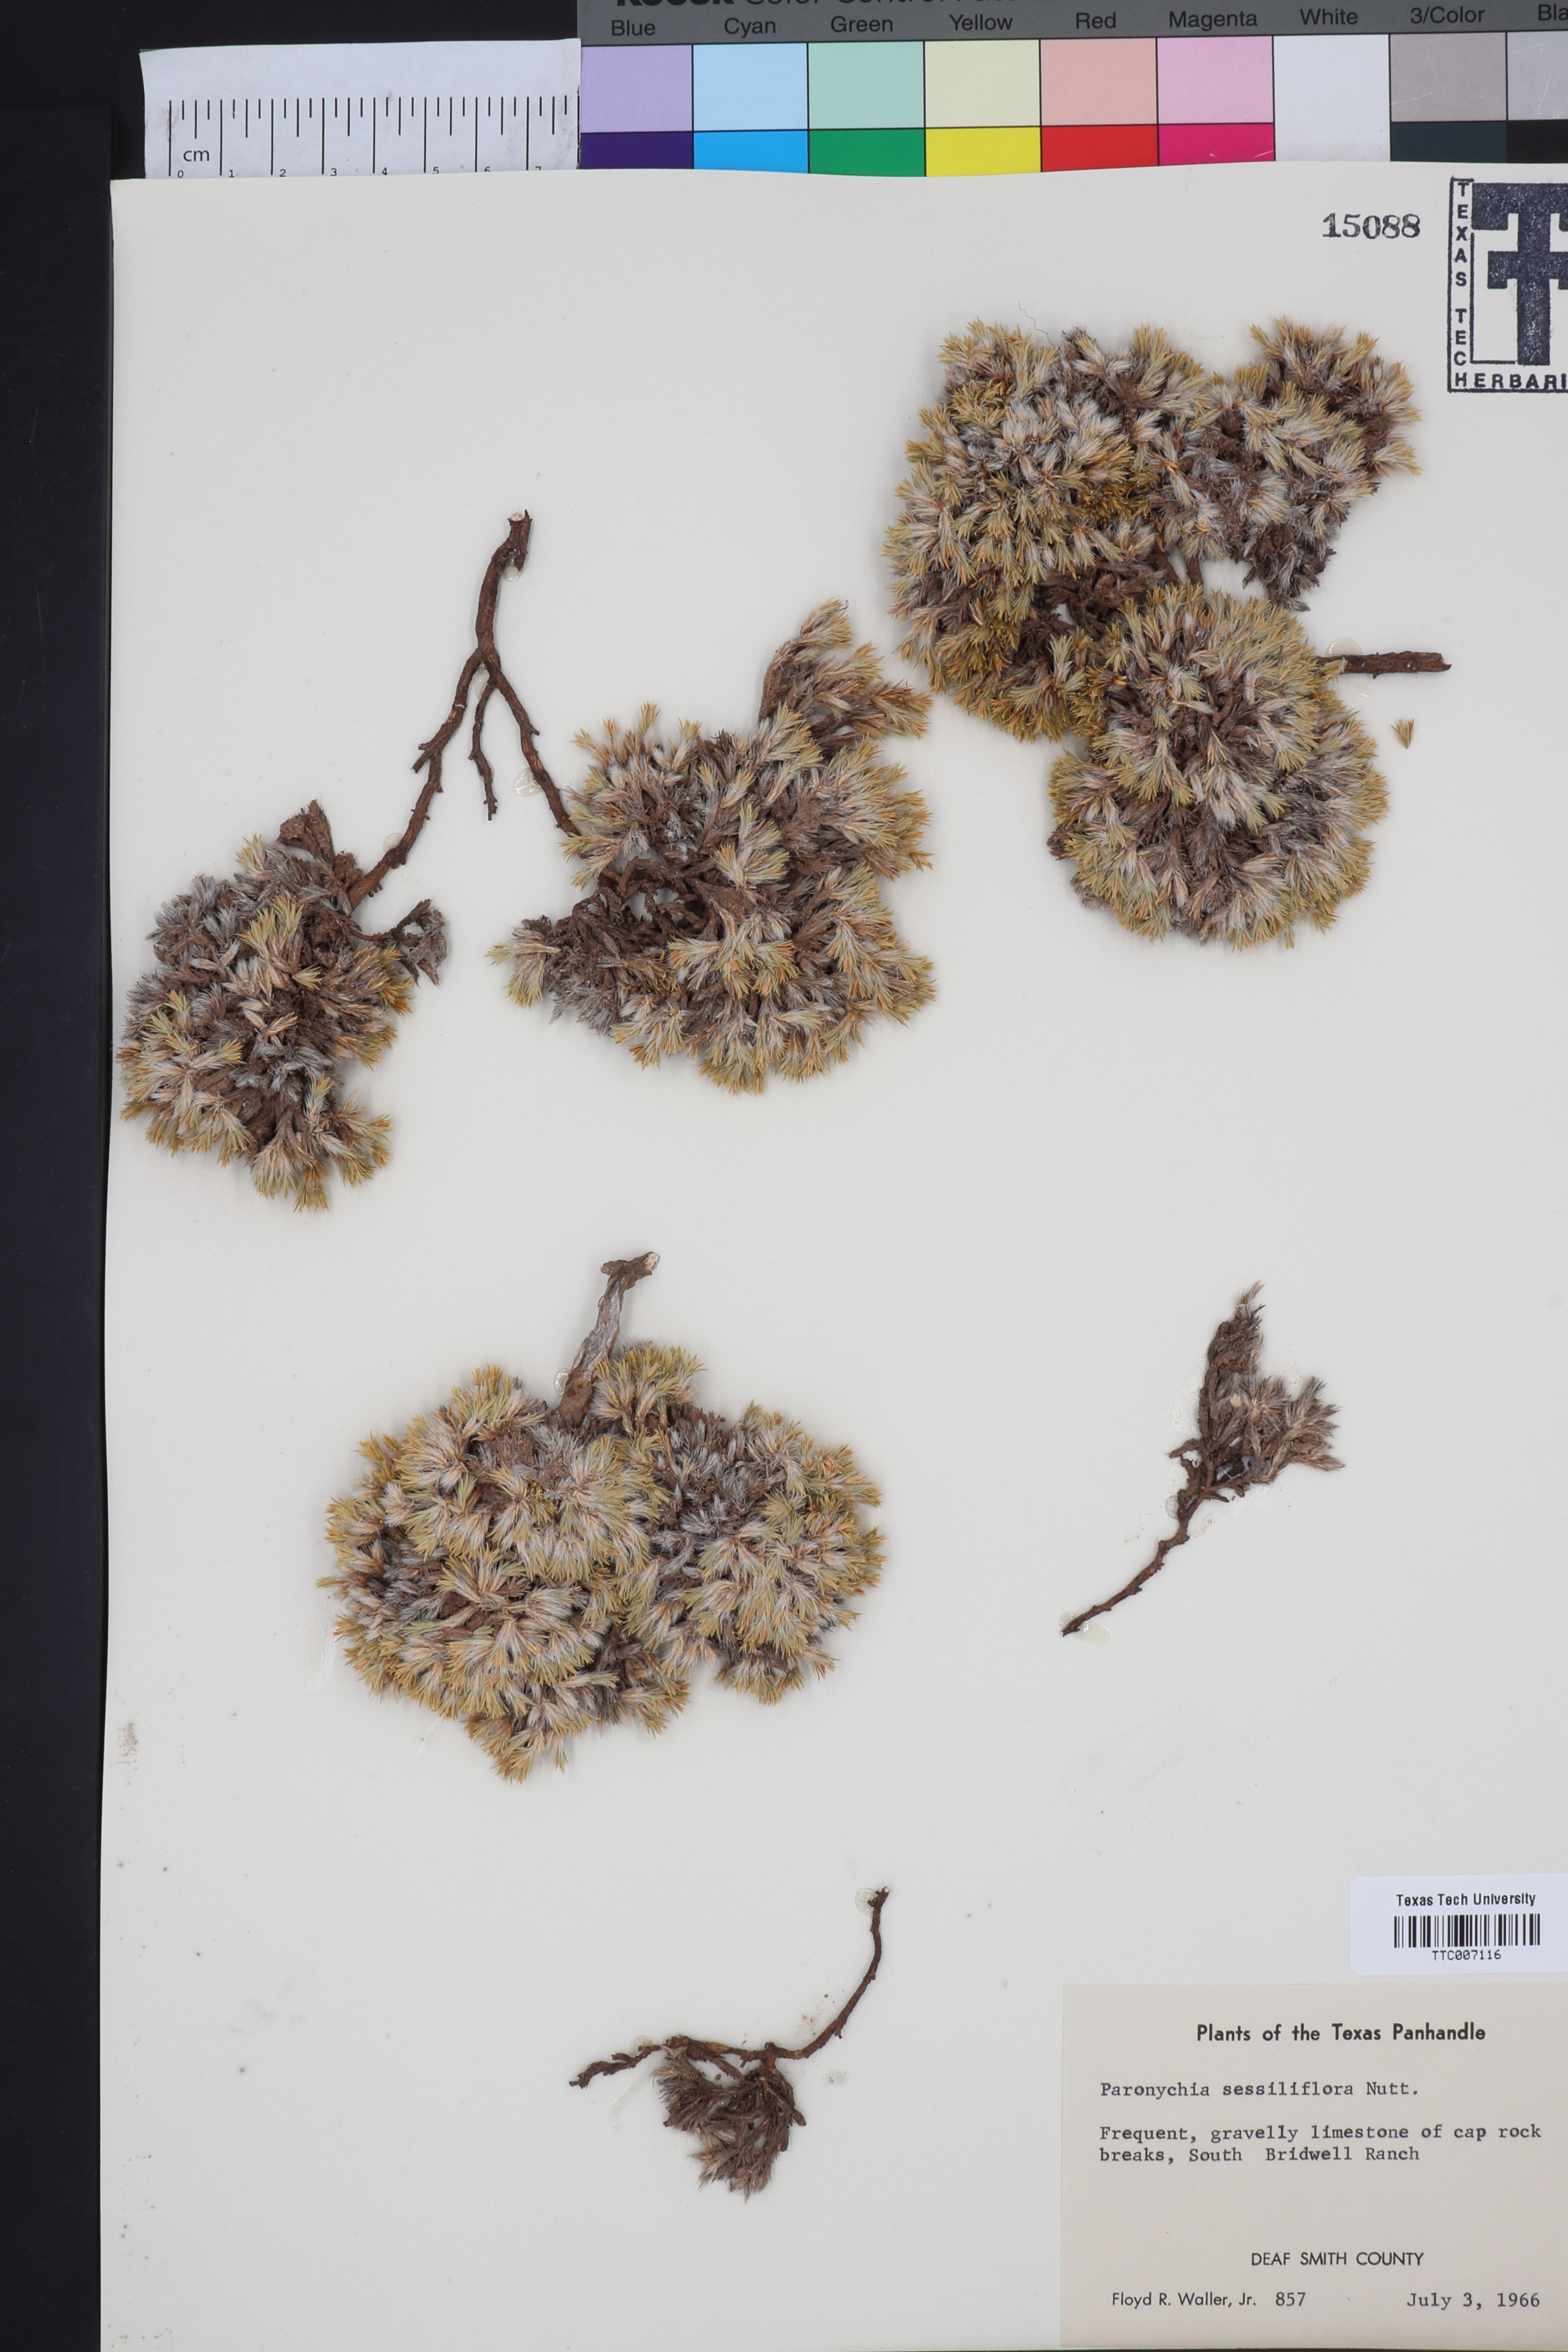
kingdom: Plantae
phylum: Tracheophyta
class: Magnoliopsida
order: Caryophyllales
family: Caryophyllaceae
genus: Paronychia
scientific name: Paronychia sessiliflora
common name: Creeping nailwort
